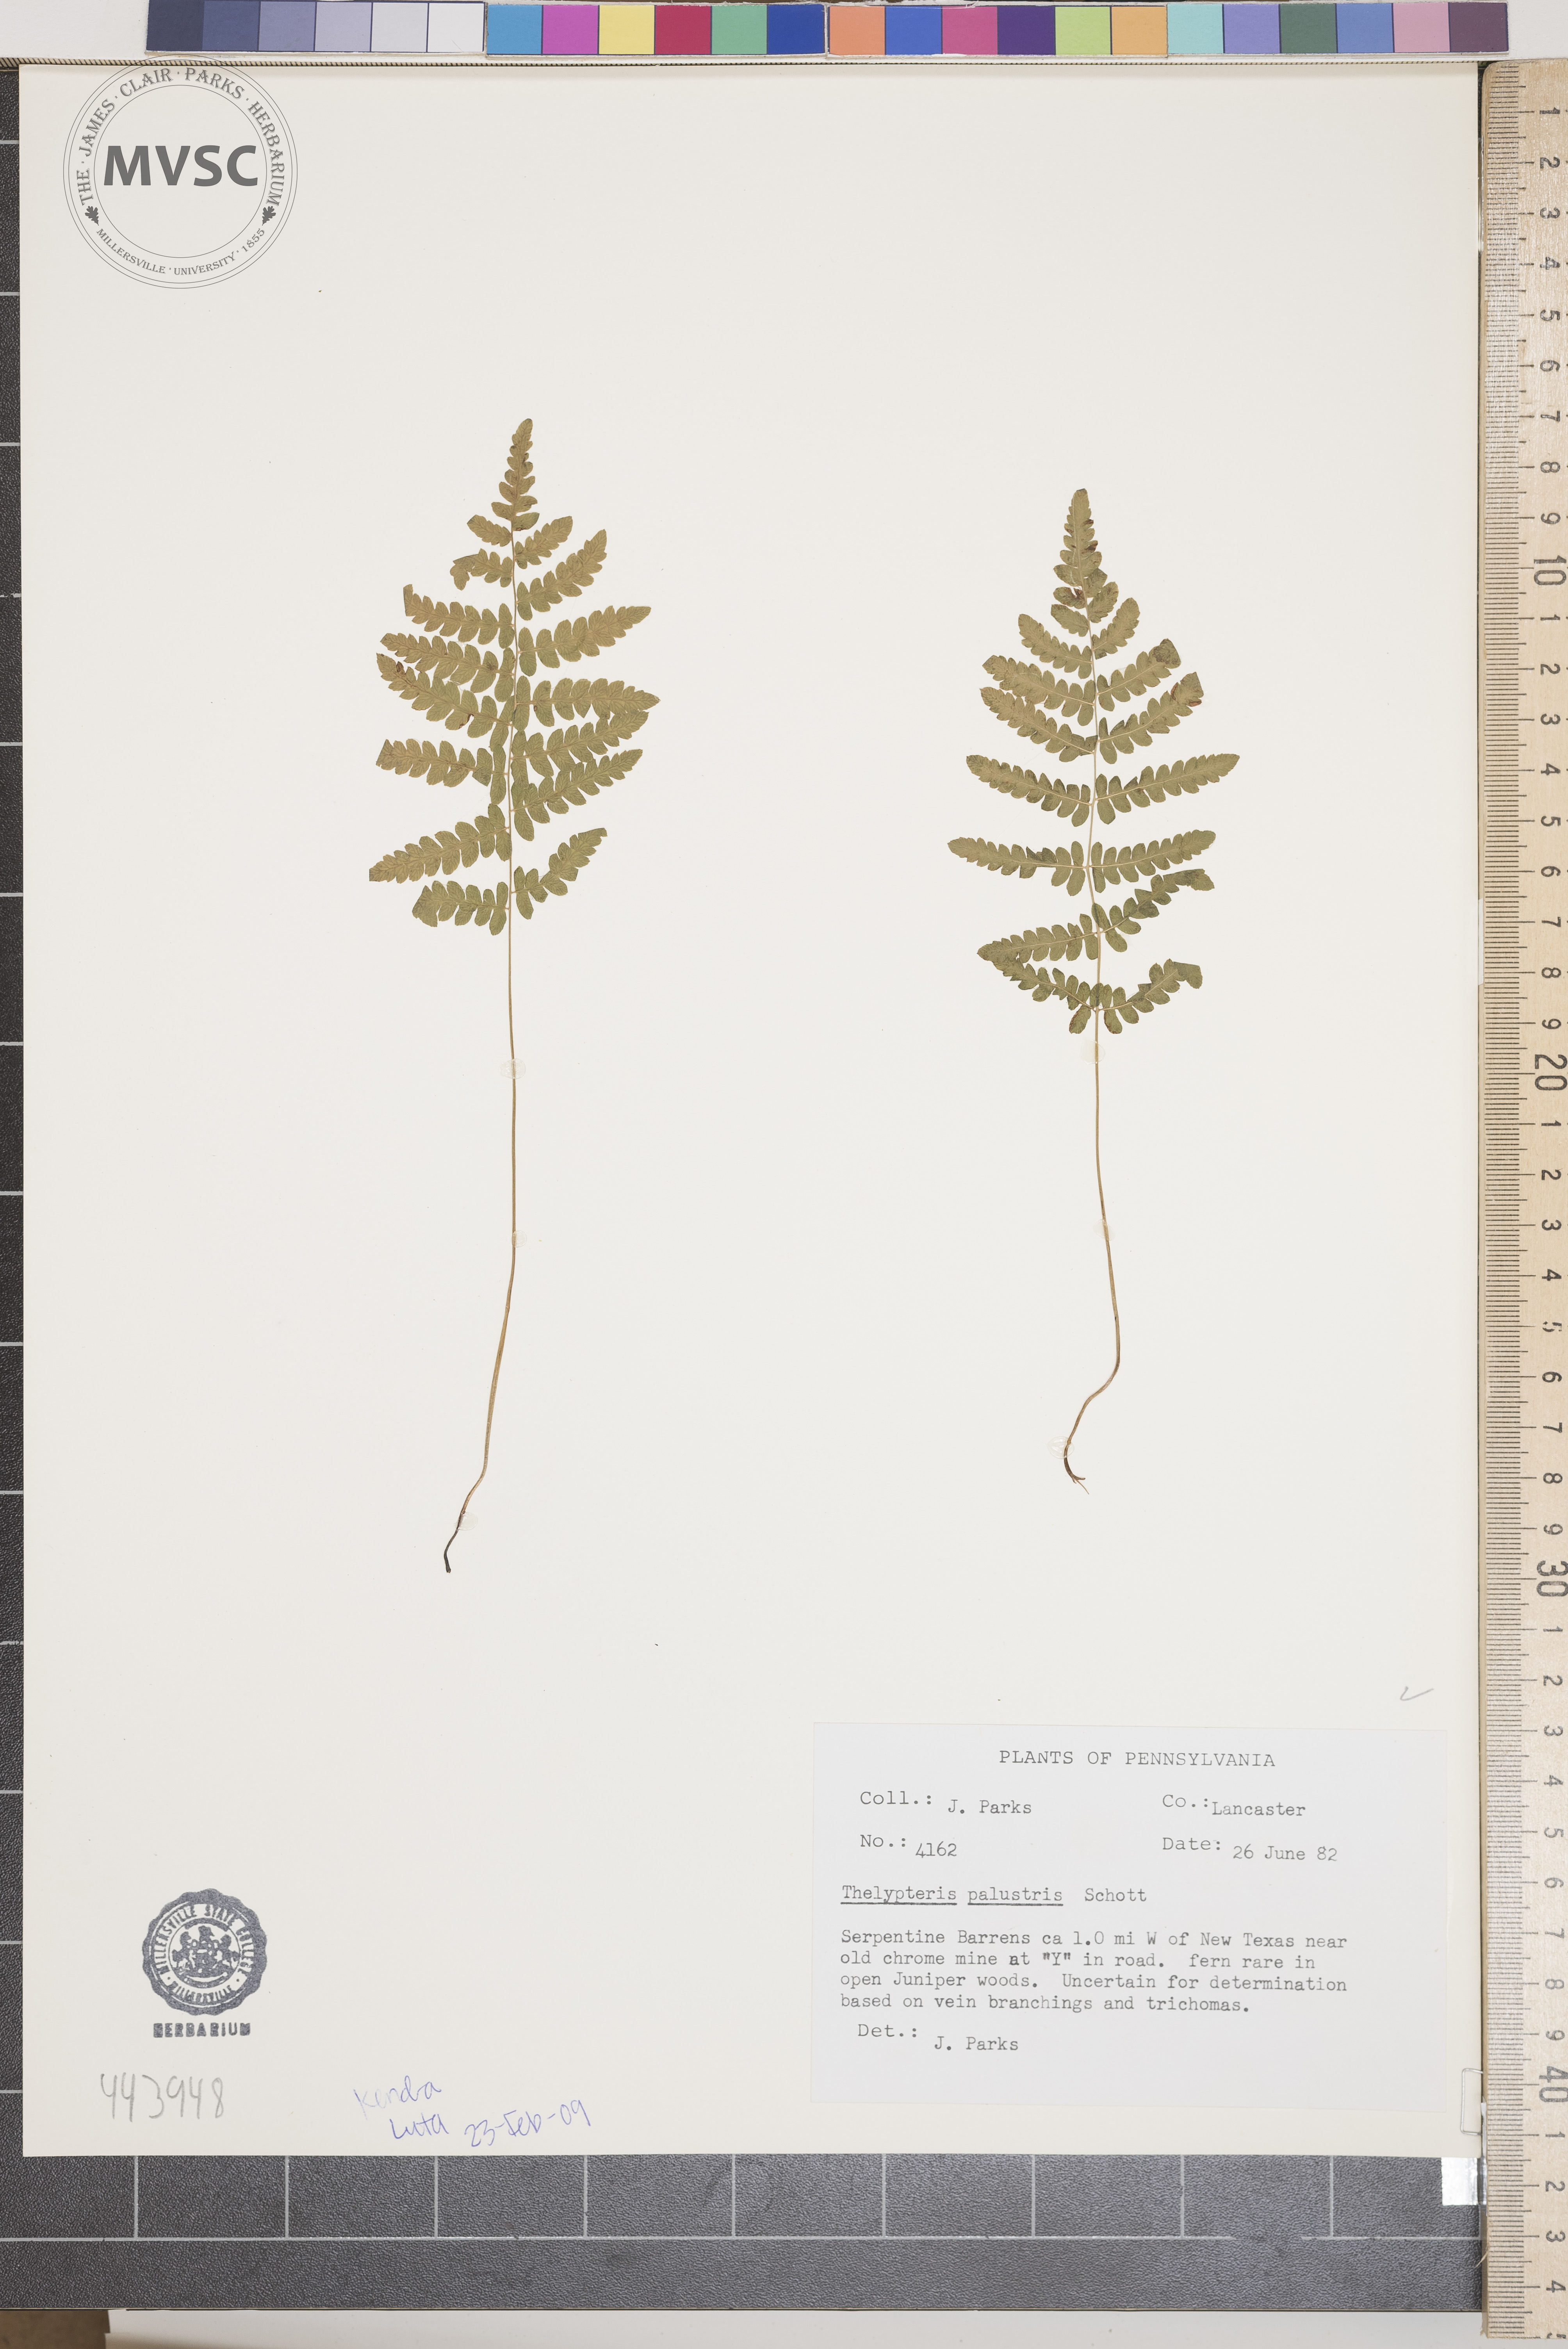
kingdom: Plantae
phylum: Tracheophyta
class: Polypodiopsida
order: Polypodiales
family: Thelypteridaceae
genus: Thelypteris
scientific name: Thelypteris palustris
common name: Marsh fern
